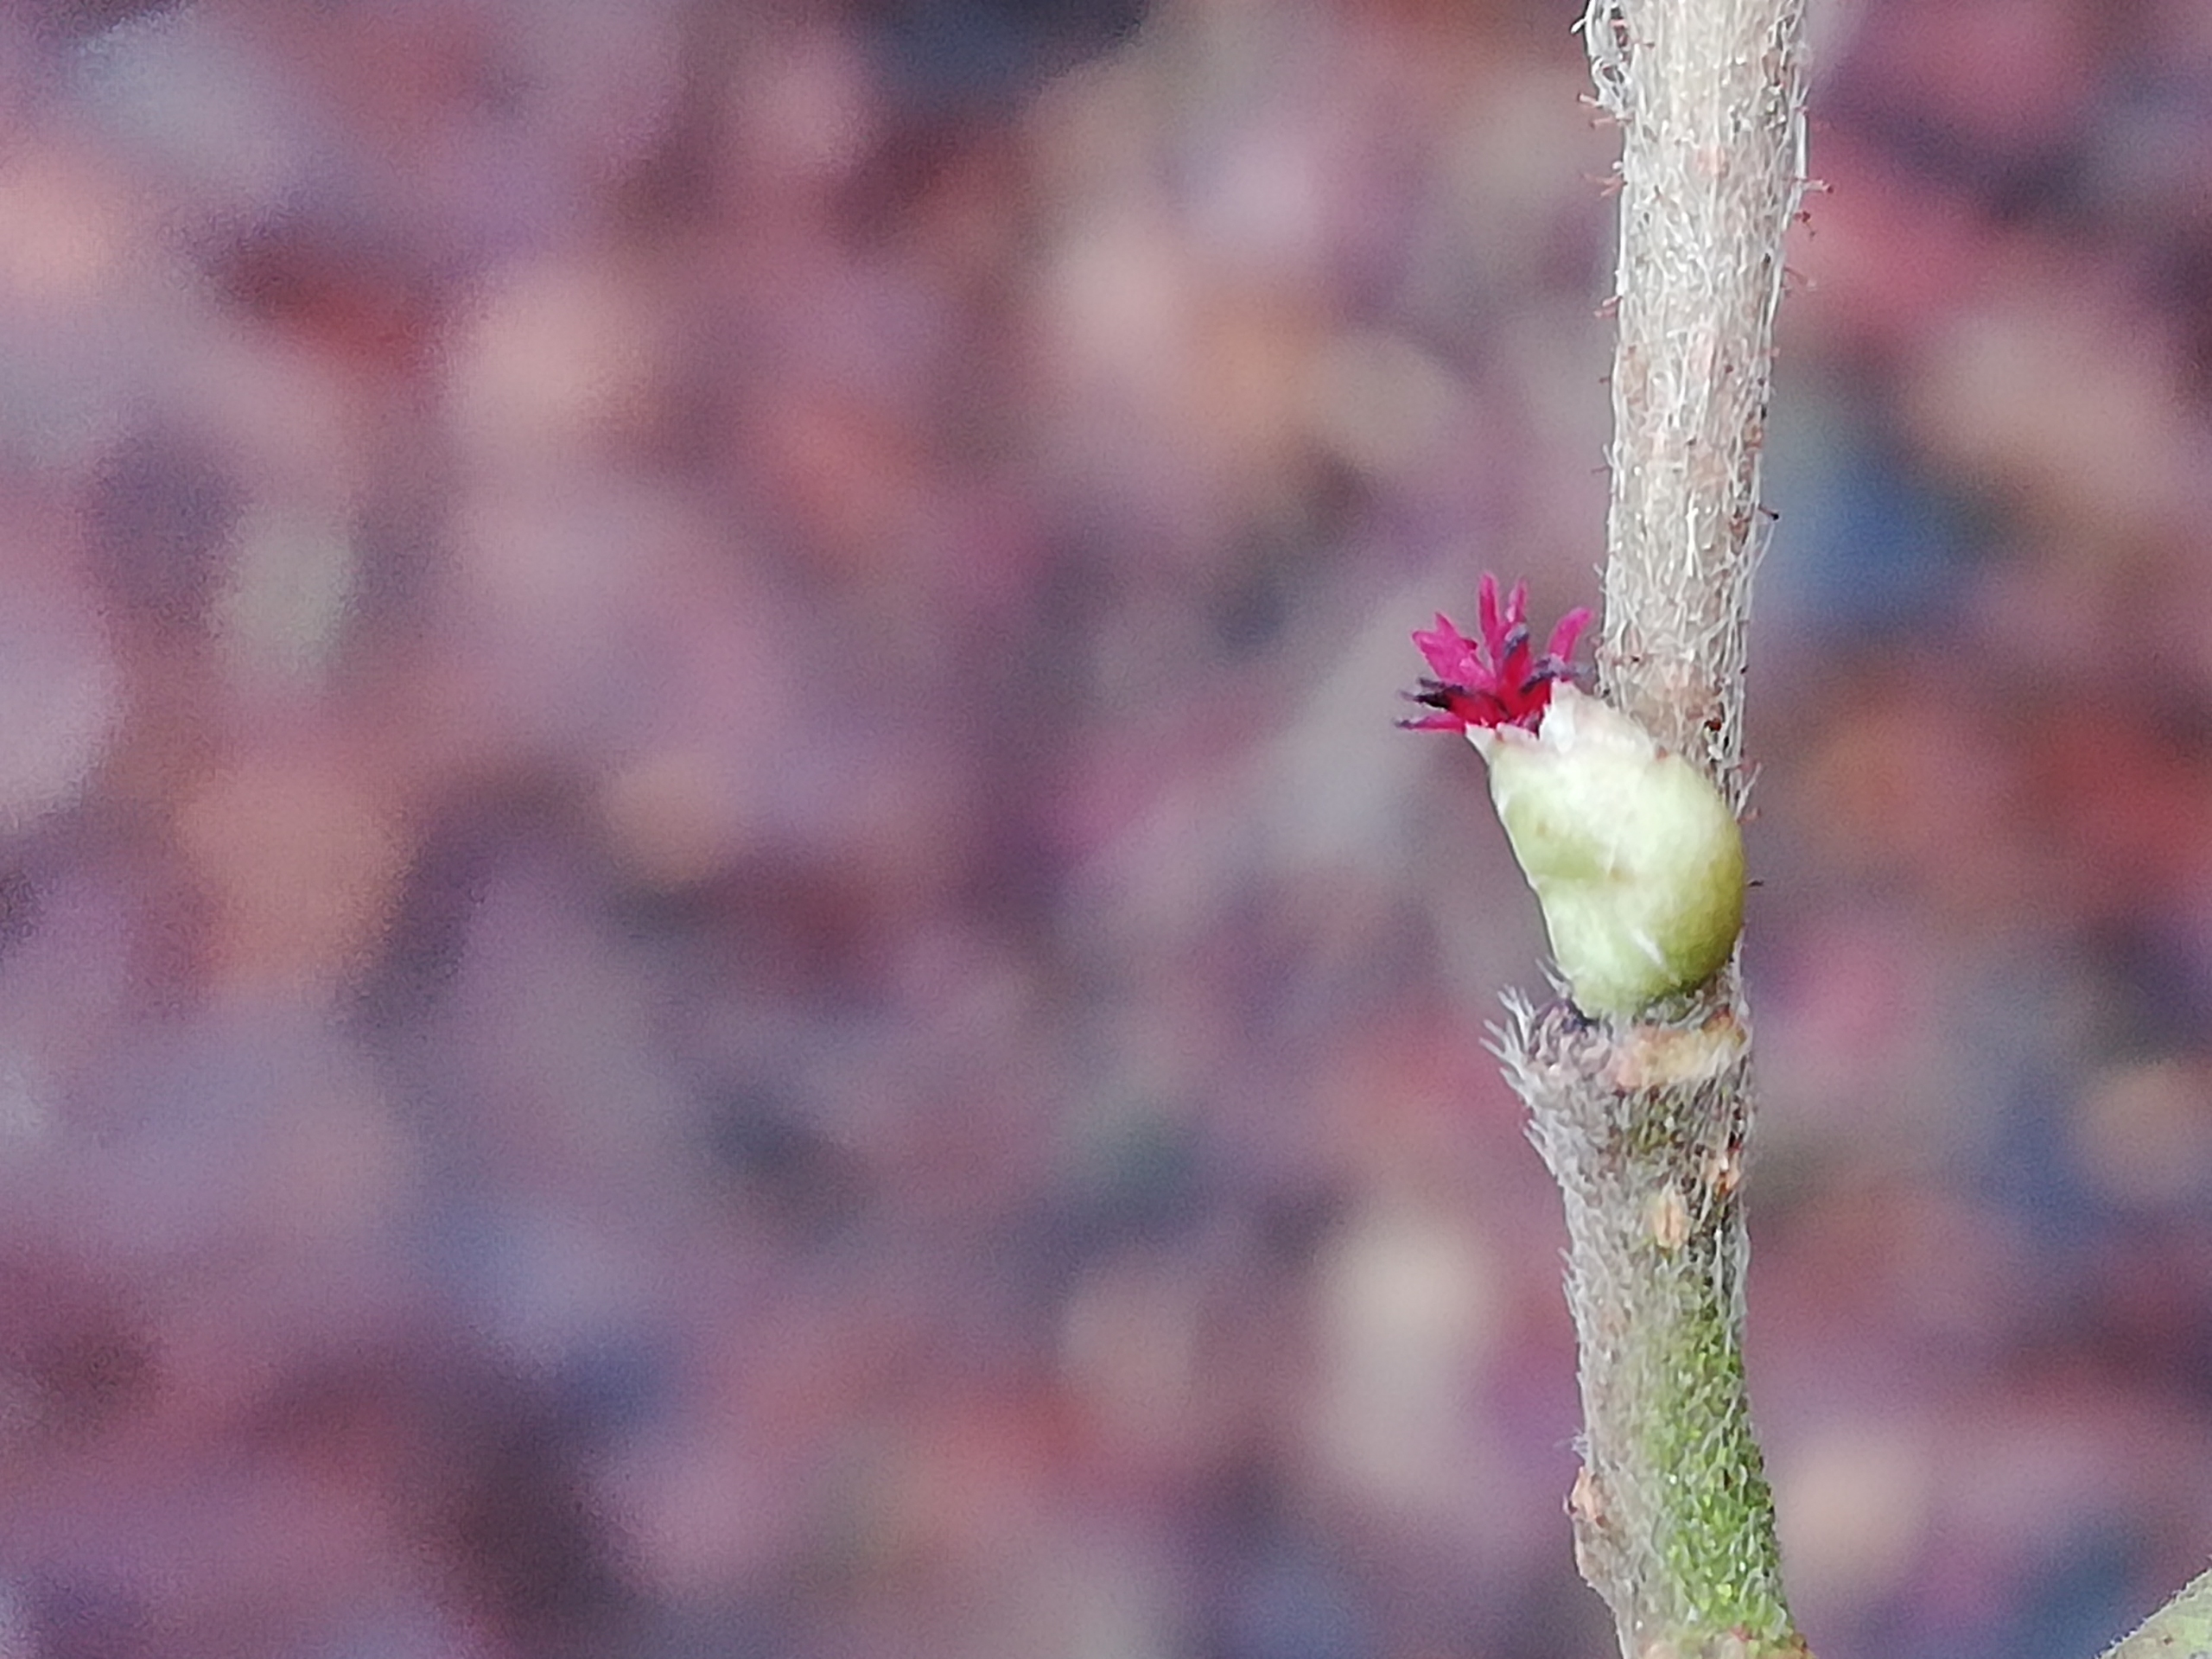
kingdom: Plantae
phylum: Tracheophyta
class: Magnoliopsida
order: Fagales
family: Betulaceae
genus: Corylus
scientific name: Corylus avellana
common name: Hassel
